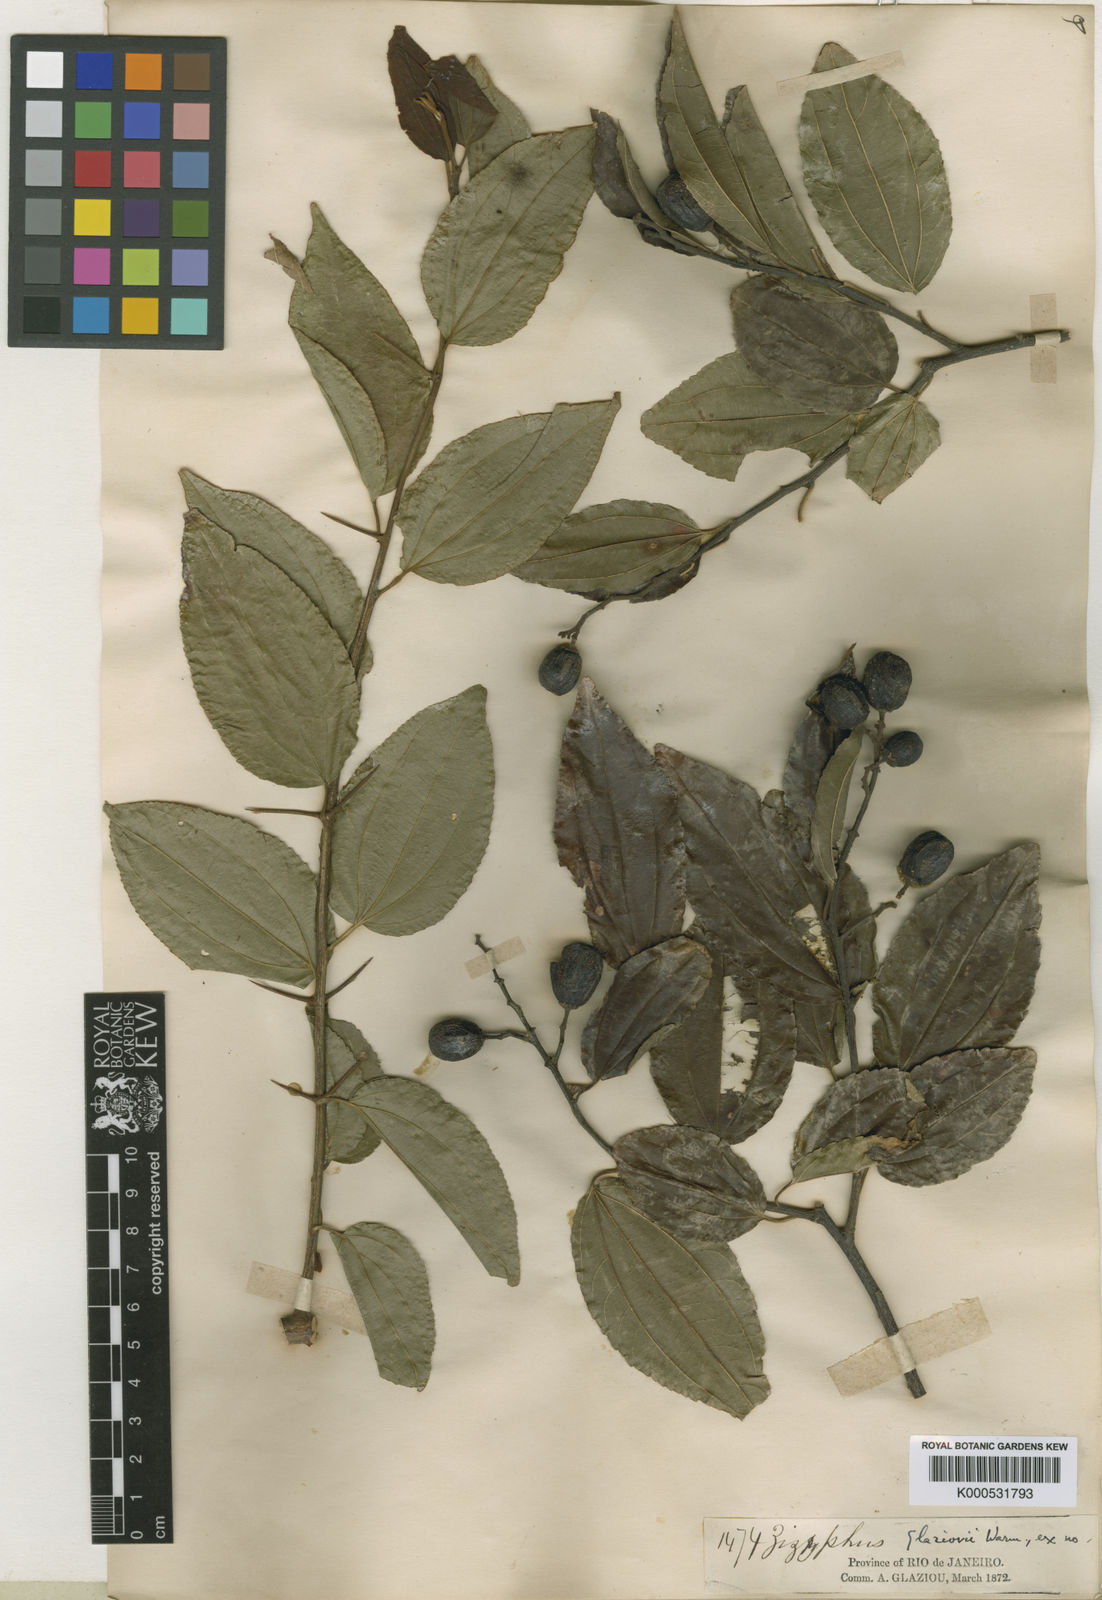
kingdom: Plantae
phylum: Tracheophyta
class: Magnoliopsida
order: Rosales
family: Rhamnaceae
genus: Sarcomphalus
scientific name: Sarcomphalus glaziovii
